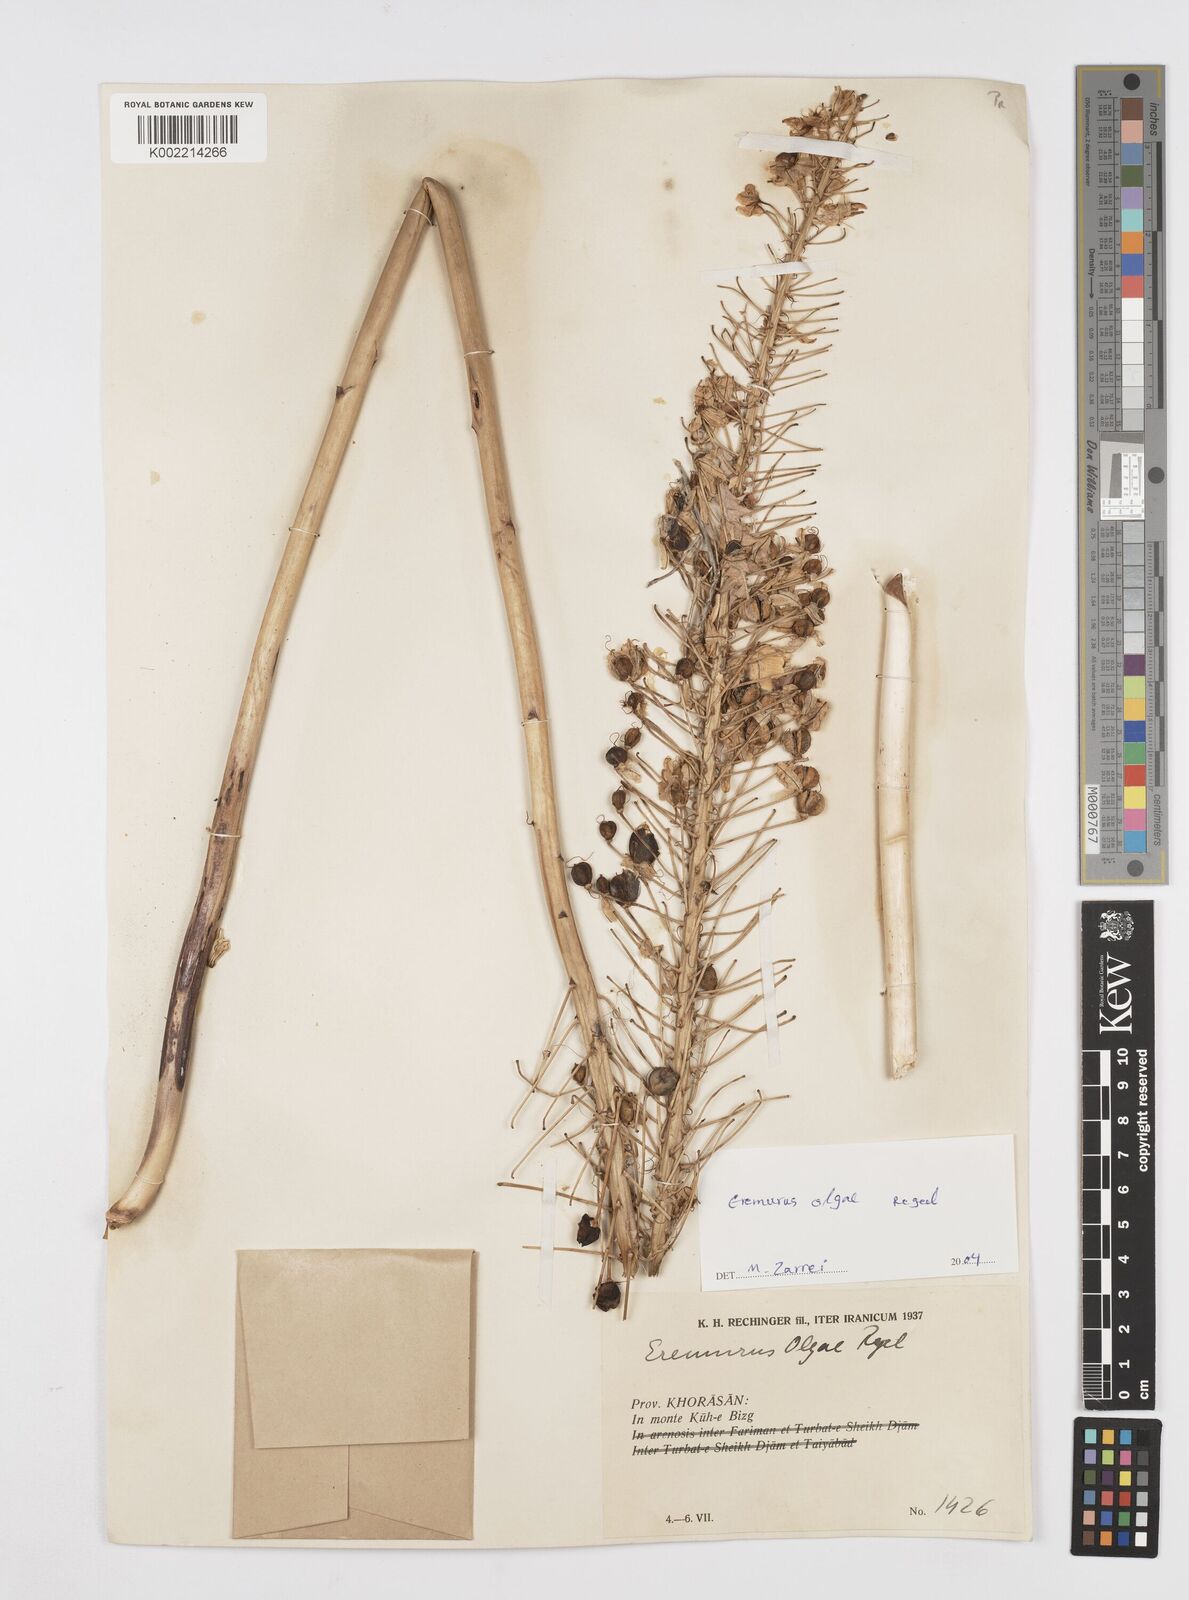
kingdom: Plantae
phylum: Tracheophyta
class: Liliopsida
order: Asparagales
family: Asphodelaceae
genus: Eremurus
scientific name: Eremurus olgae
